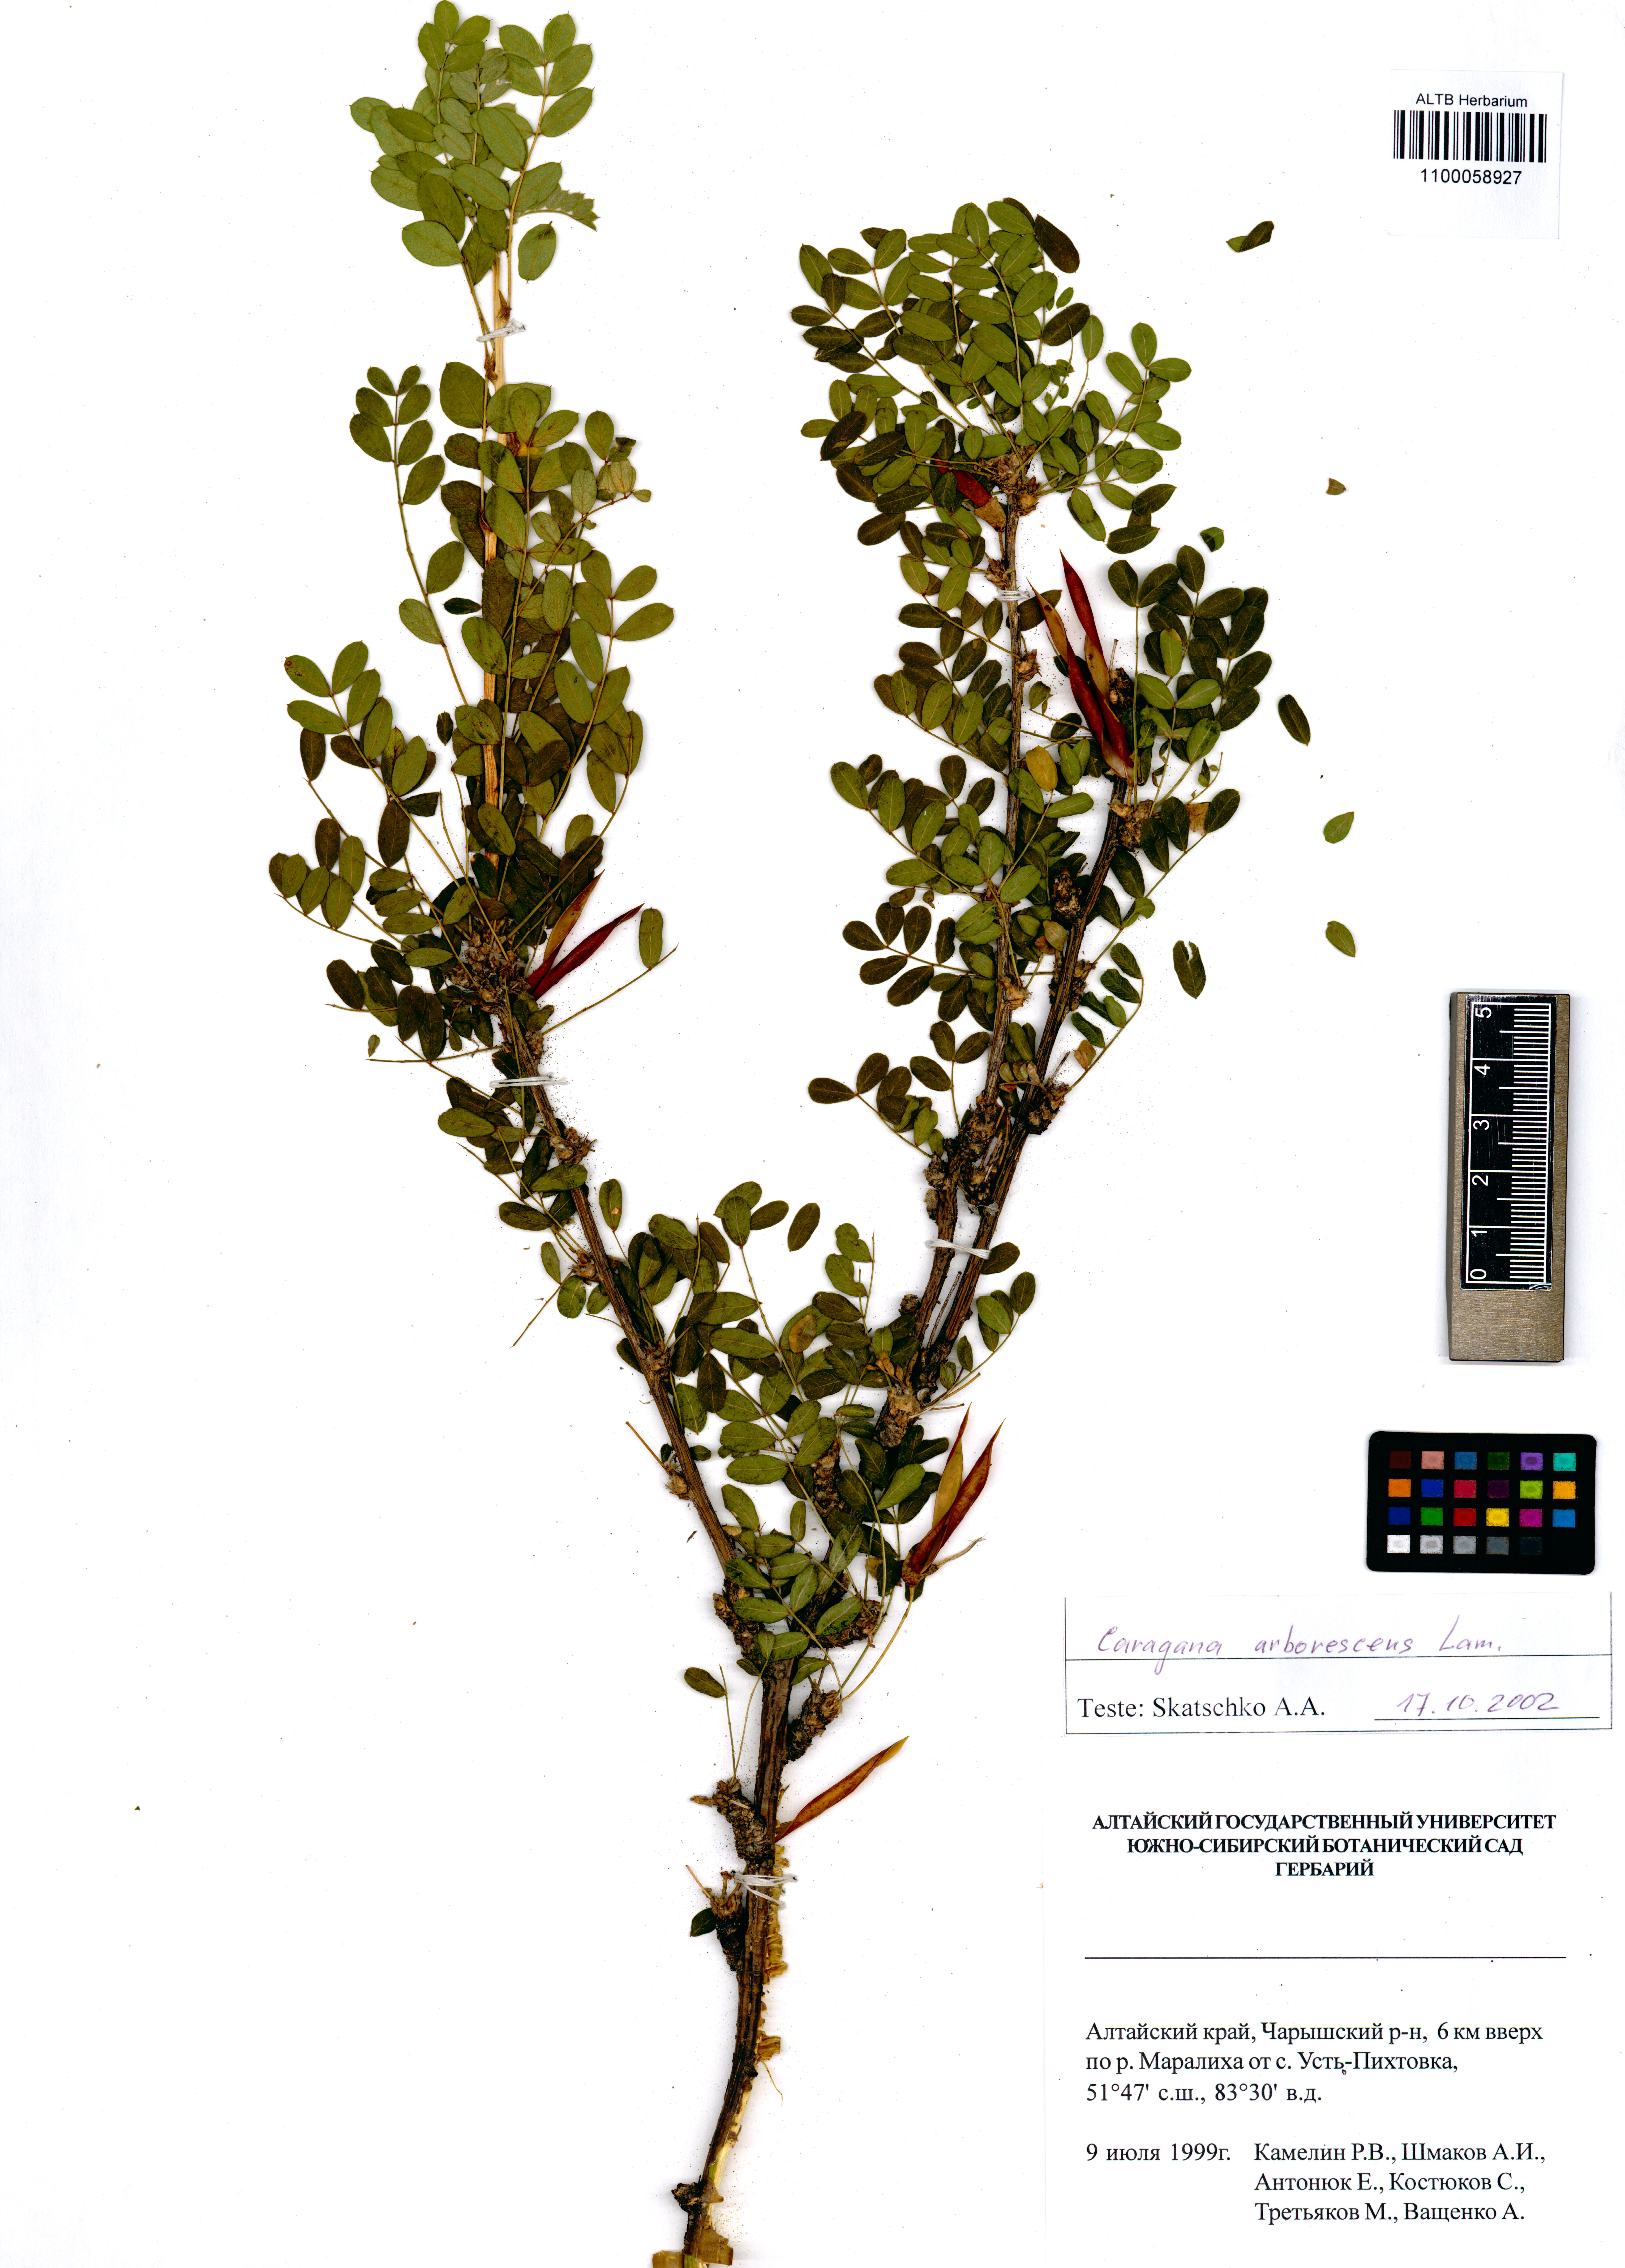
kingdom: Plantae
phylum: Tracheophyta
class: Magnoliopsida
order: Fabales
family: Fabaceae
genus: Caragana
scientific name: Caragana arborescens
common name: Siberian peashrub
